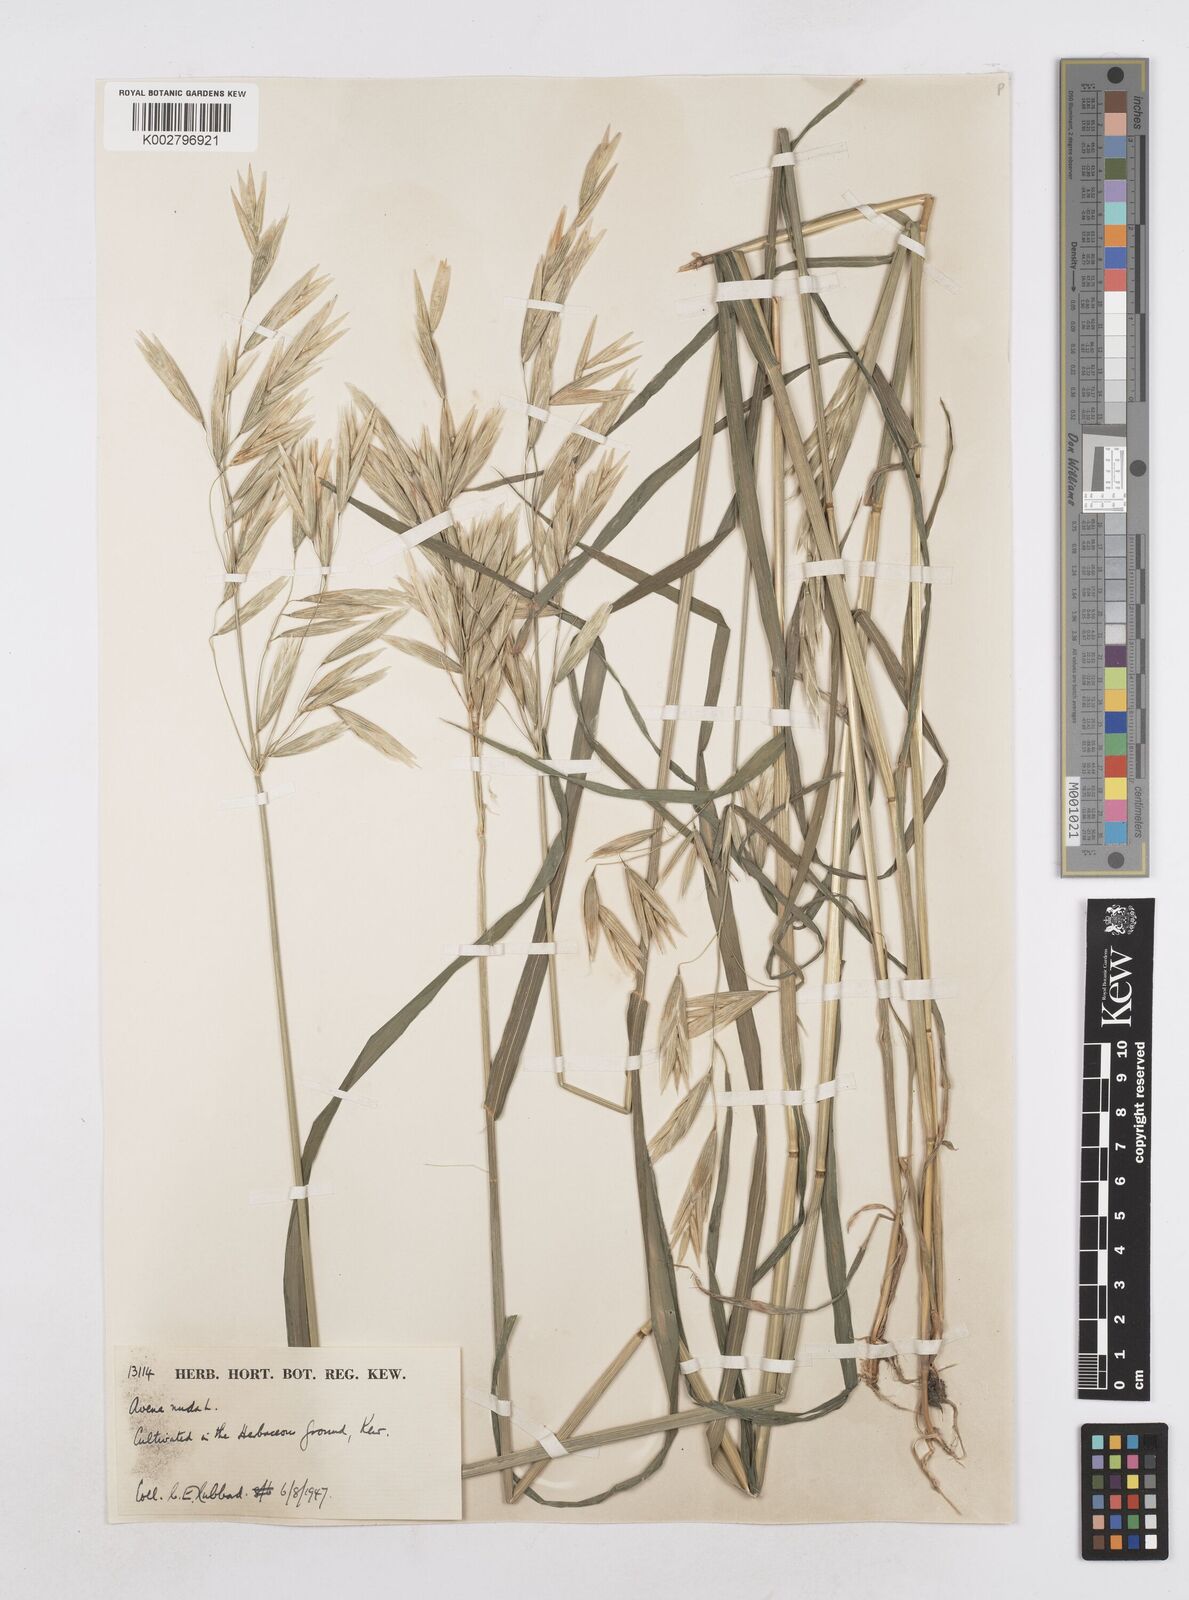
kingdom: Plantae
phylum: Tracheophyta
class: Liliopsida
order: Poales
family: Poaceae
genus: Avena
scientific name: Avena nuda
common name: Naked oat
